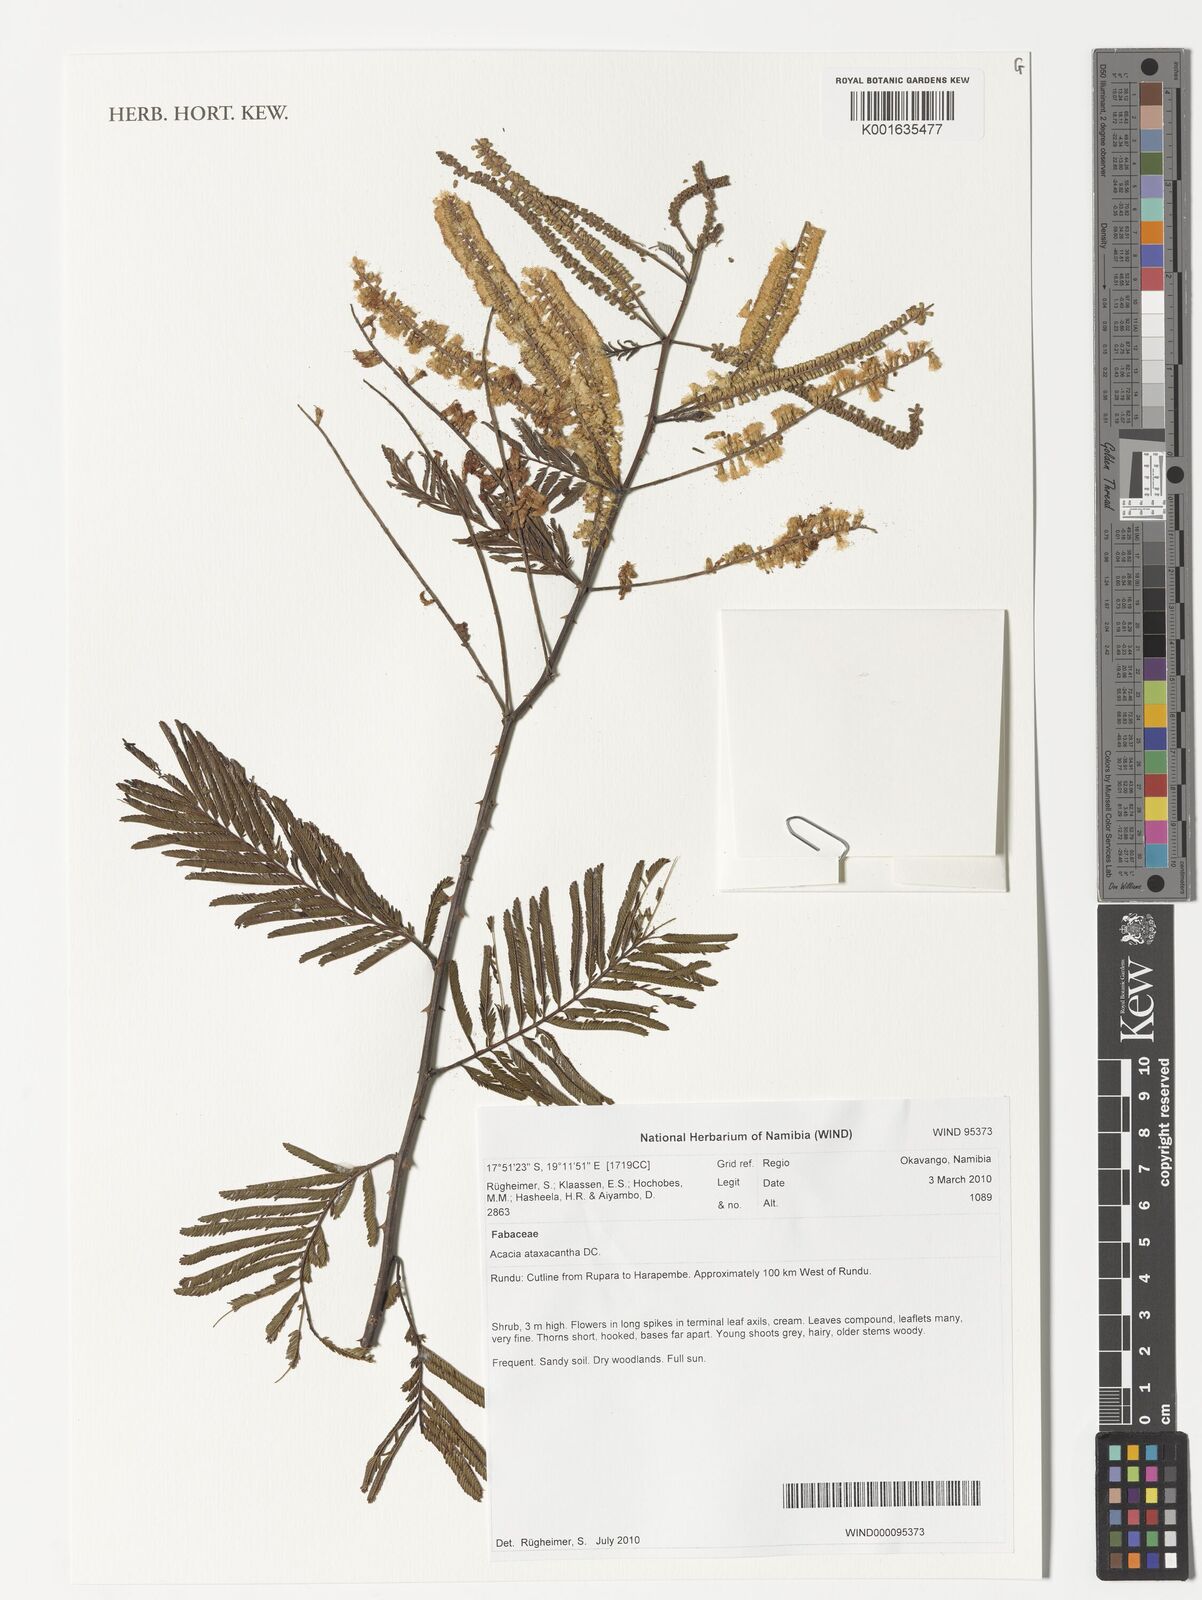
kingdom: Plantae
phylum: Tracheophyta
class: Magnoliopsida
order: Fabales
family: Fabaceae
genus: Senegalia
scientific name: Senegalia ataxacantha
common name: Flame acacia
